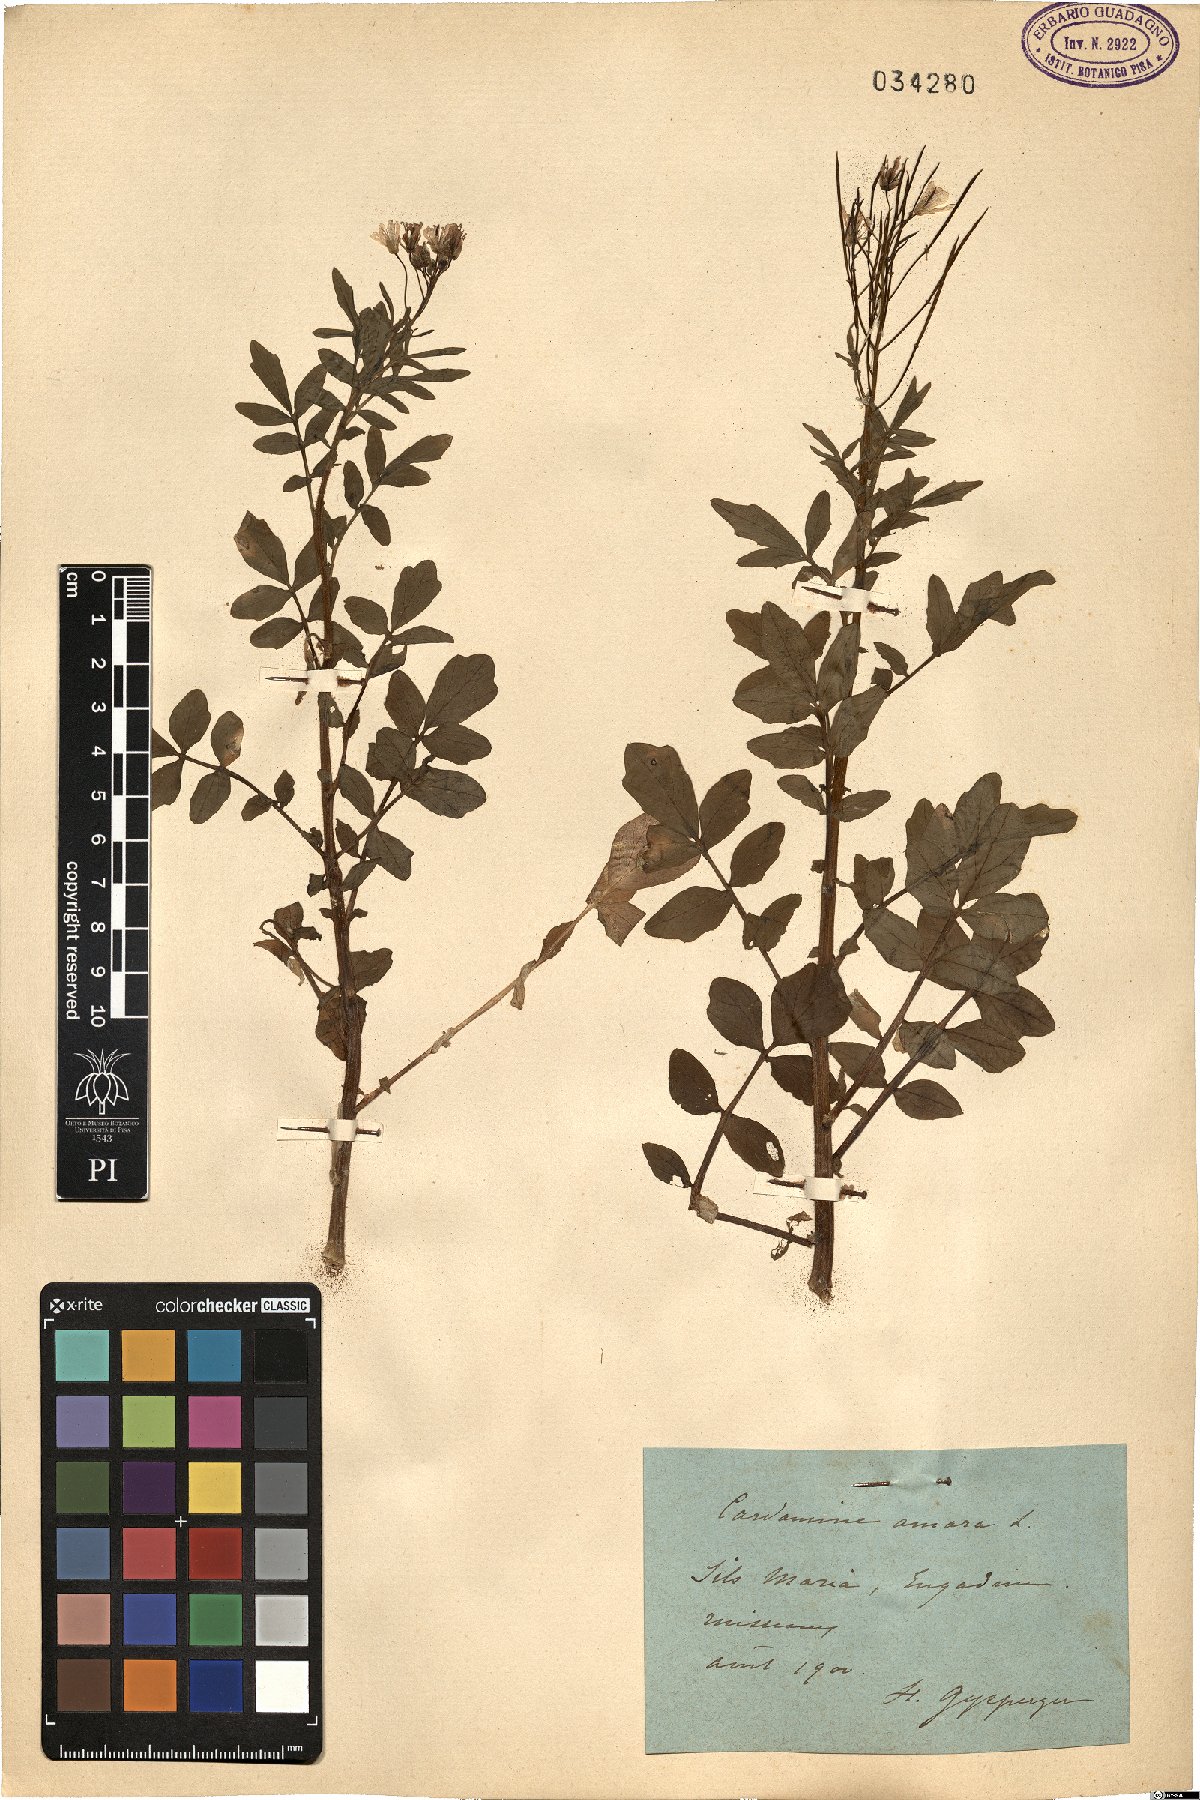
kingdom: Plantae
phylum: Tracheophyta
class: Magnoliopsida
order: Brassicales
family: Brassicaceae
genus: Cardamine
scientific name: Cardamine amara
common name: Large bitter-cress
